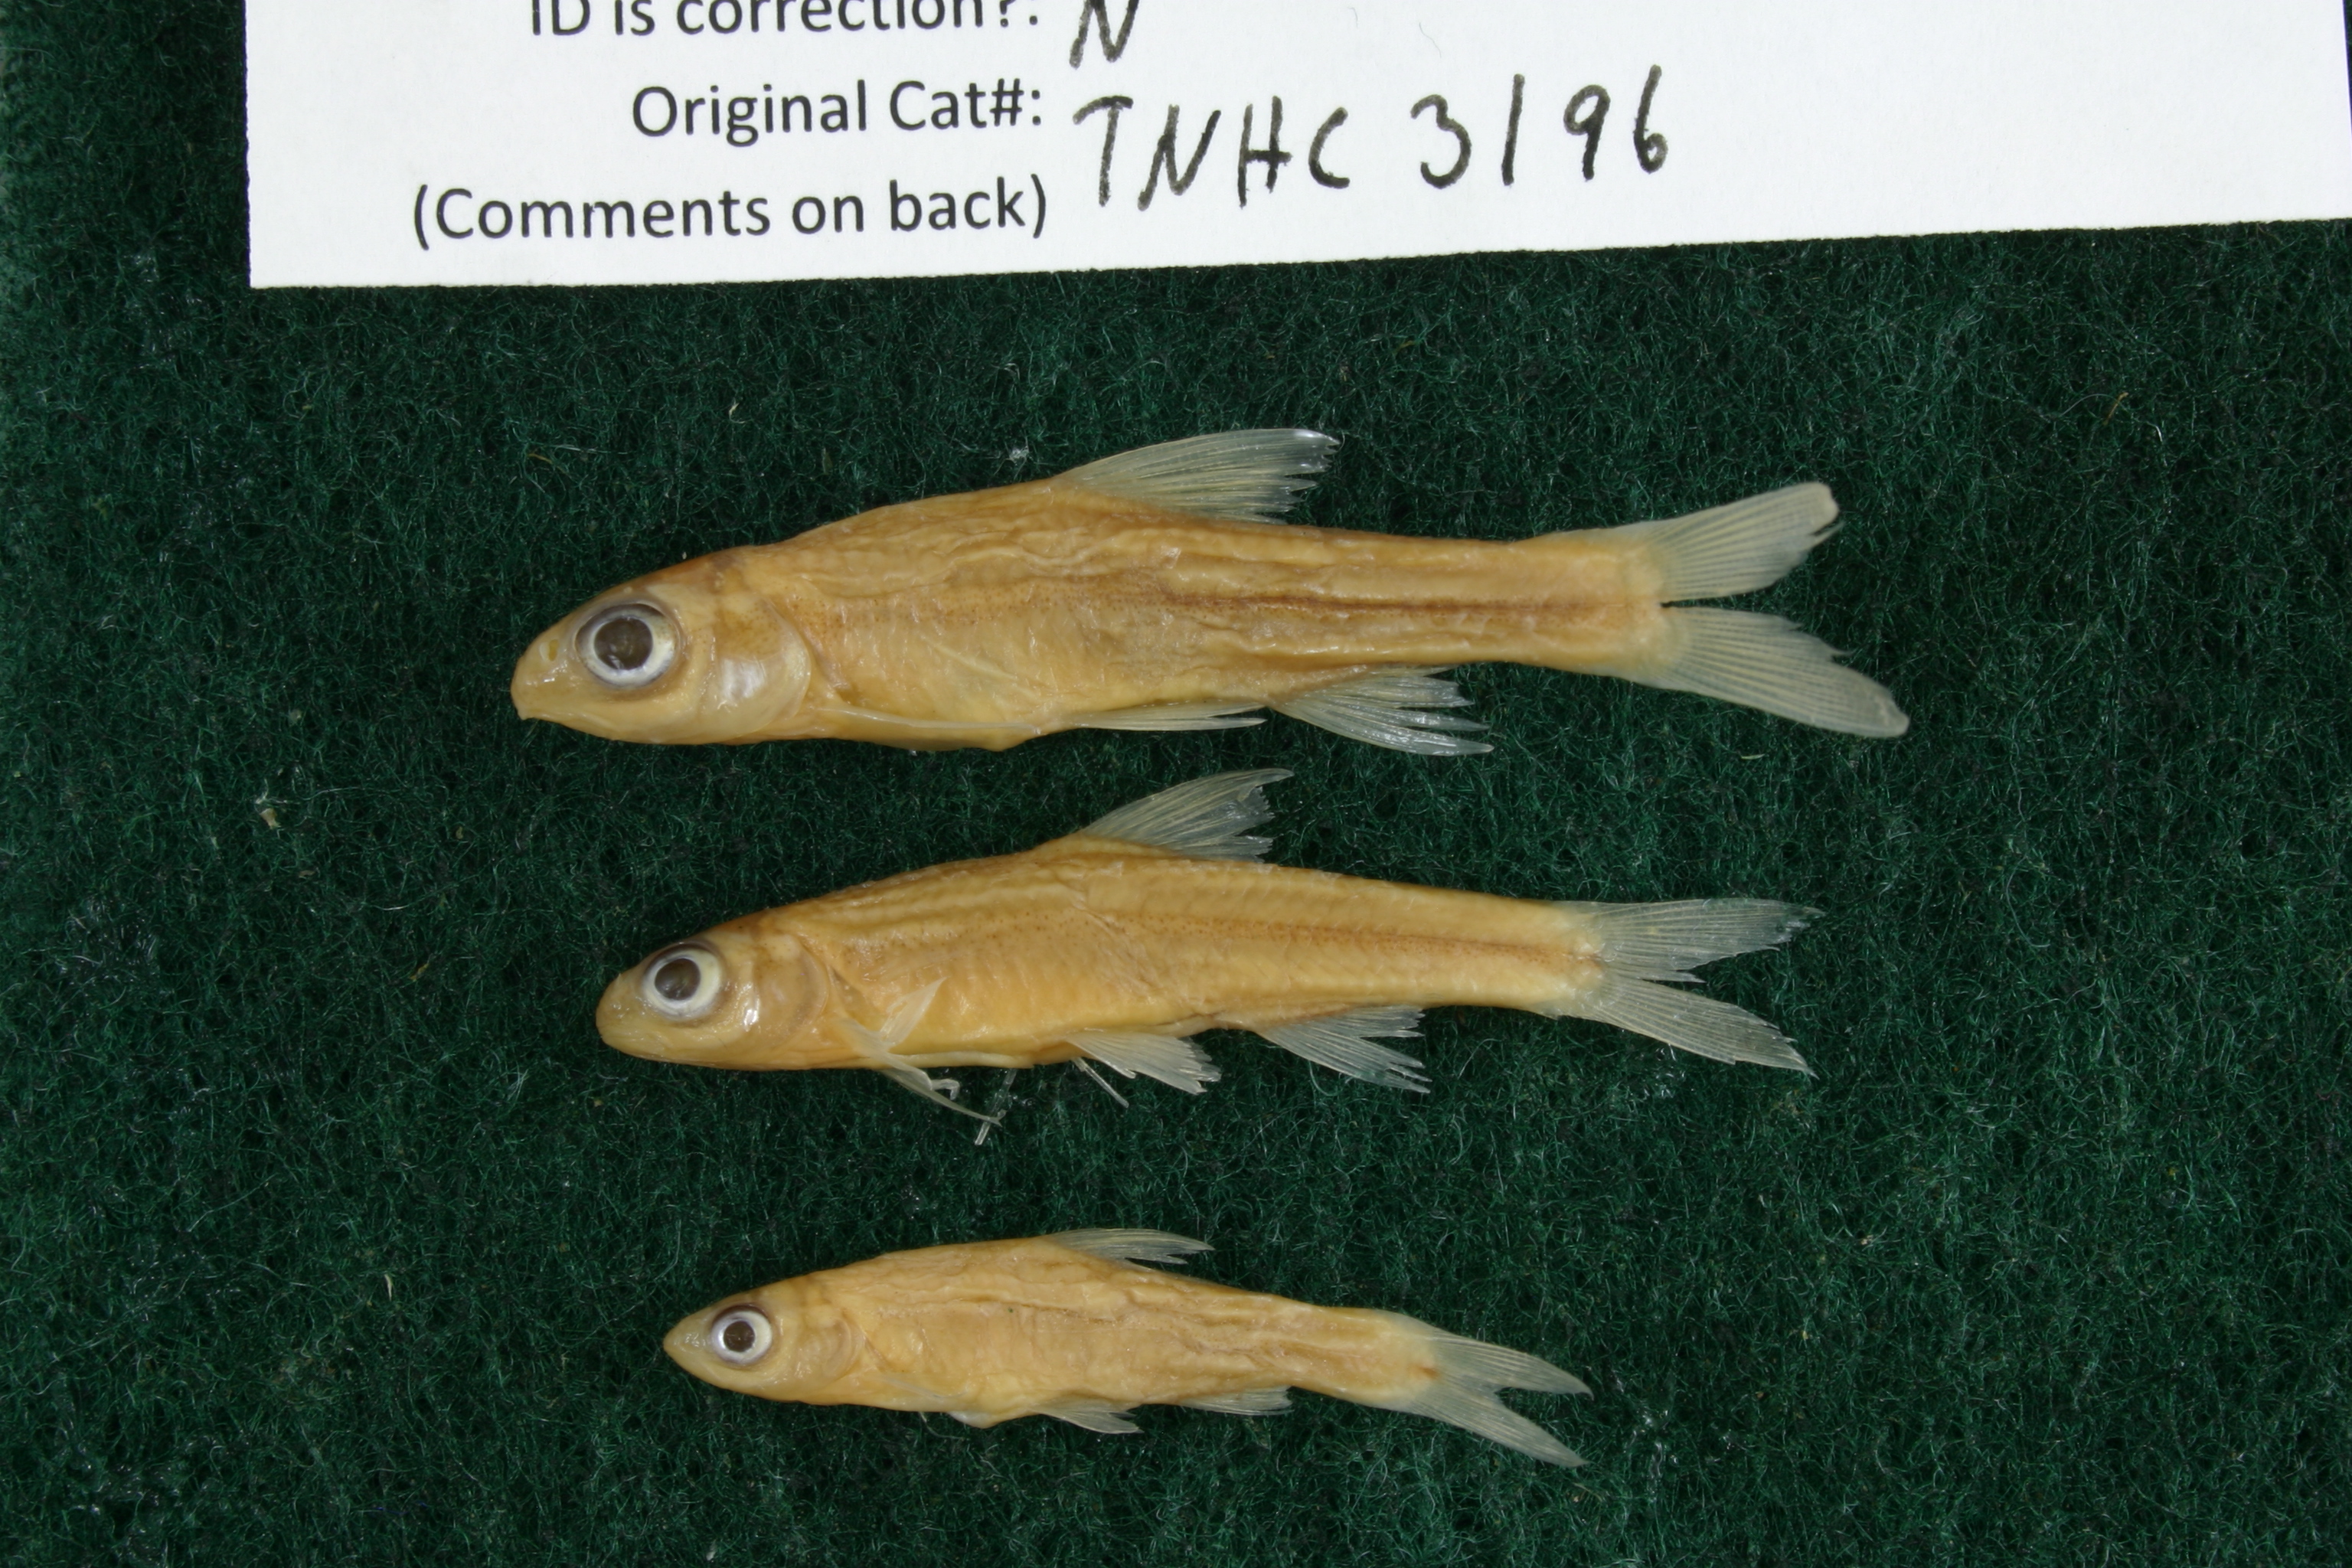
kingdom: Animalia
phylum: Chordata
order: Cypriniformes
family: Cyprinidae
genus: Hybopsis
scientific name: Hybopsis amnis
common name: Pallid shiner
